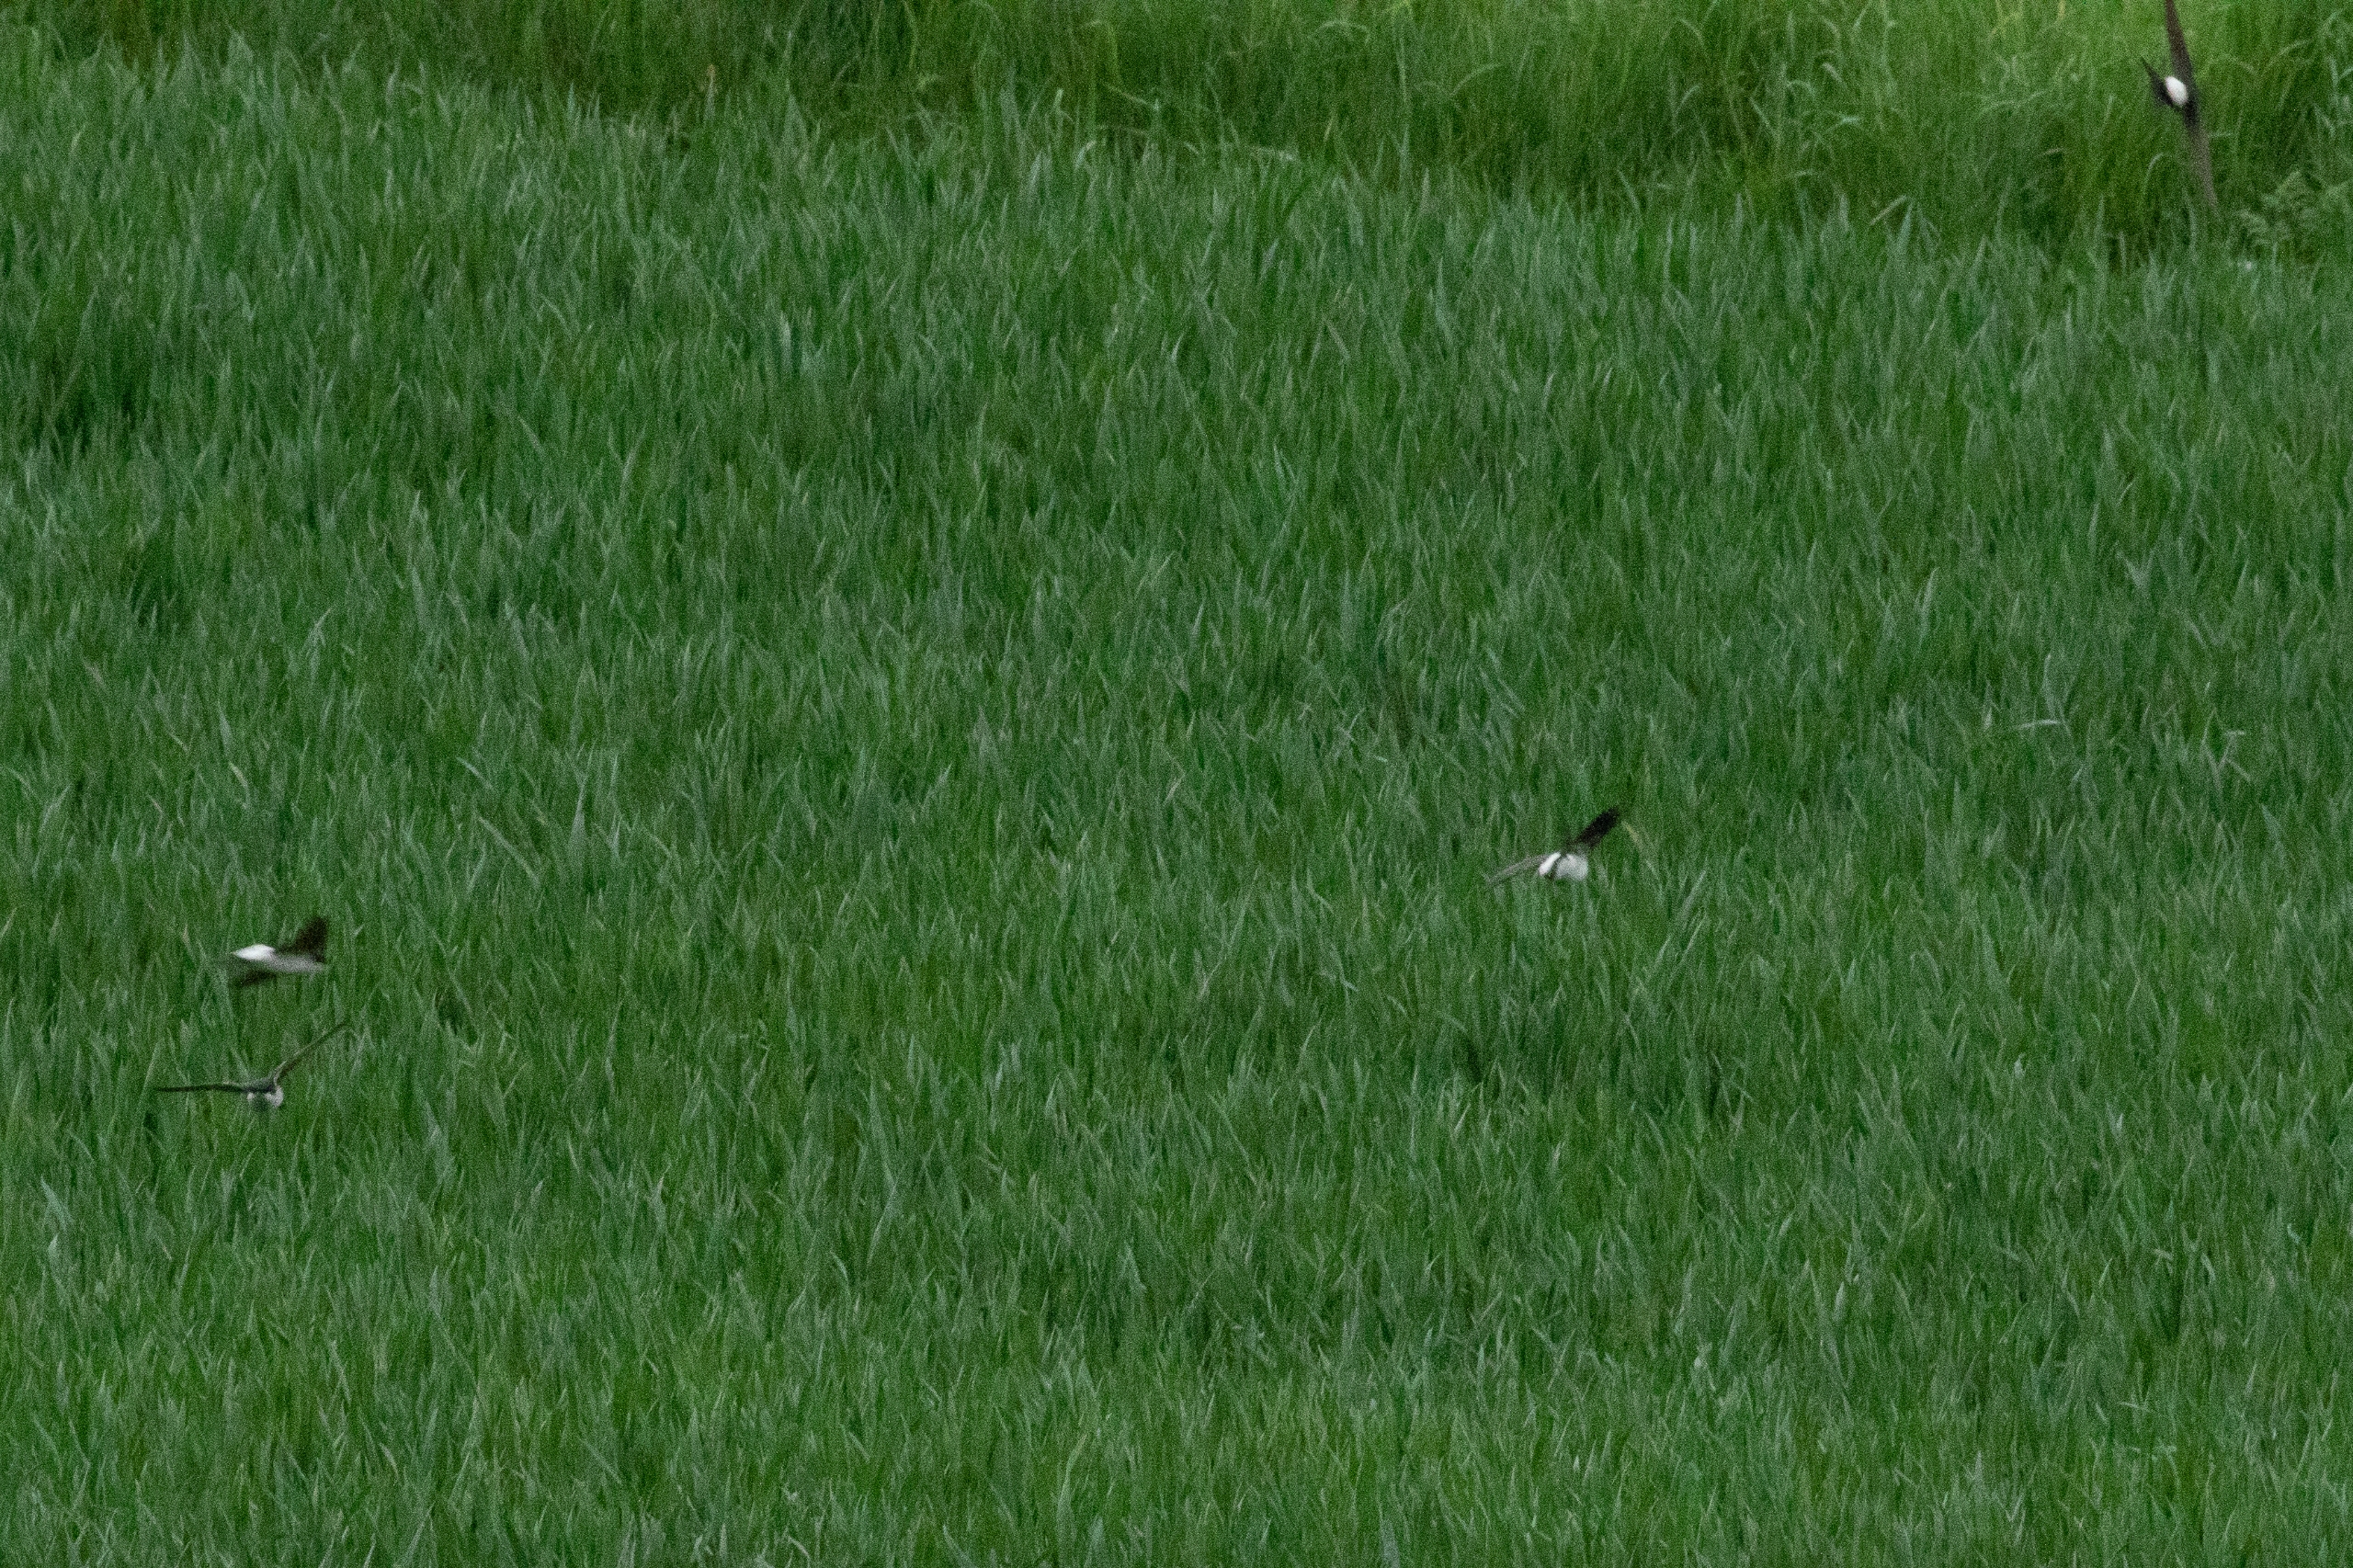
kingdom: Animalia
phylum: Chordata
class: Aves
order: Passeriformes
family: Hirundinidae
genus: Delichon
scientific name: Delichon urbicum
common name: Bysvale
